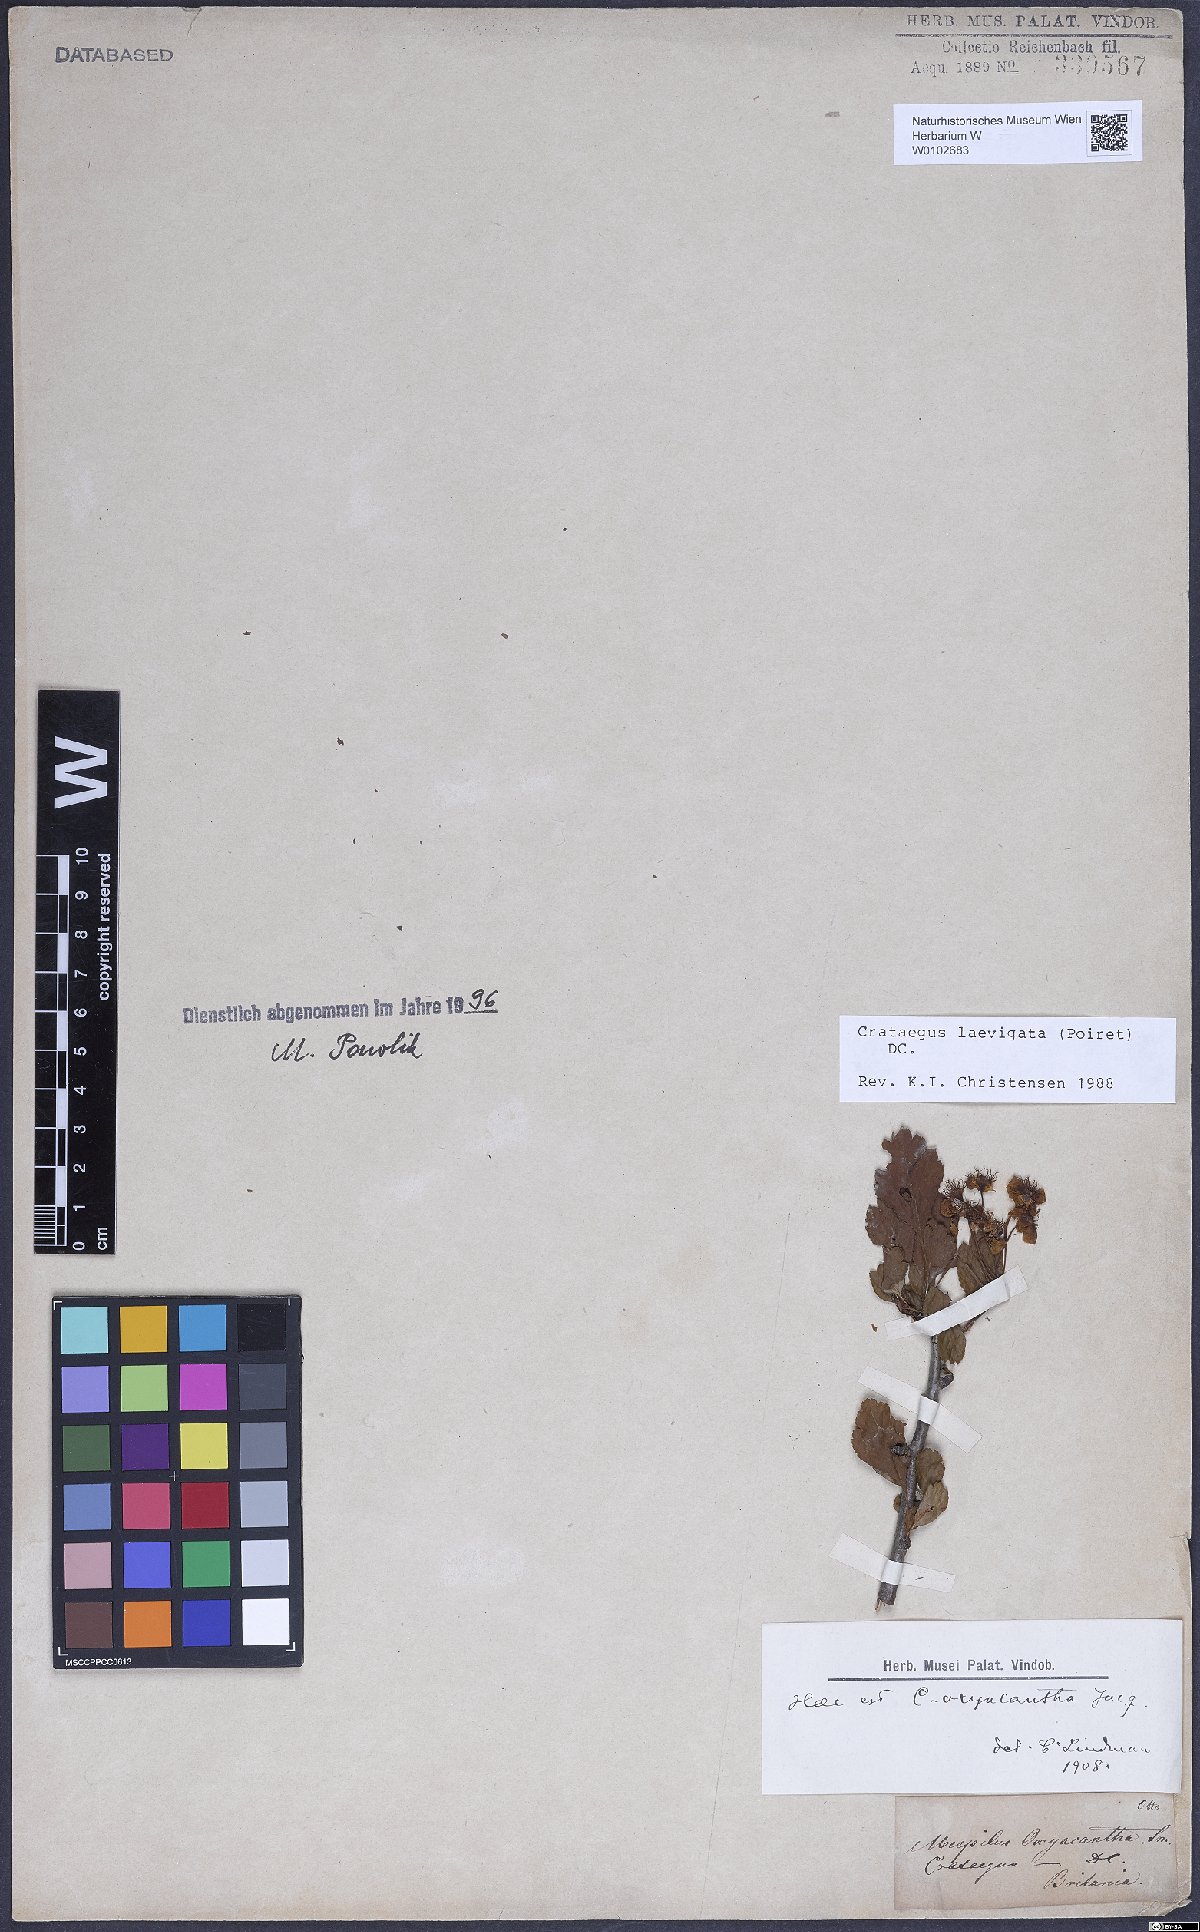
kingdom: Plantae
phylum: Tracheophyta
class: Magnoliopsida
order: Rosales
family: Rosaceae
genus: Crataegus
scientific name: Crataegus laevigata
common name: Midland hawthorn
